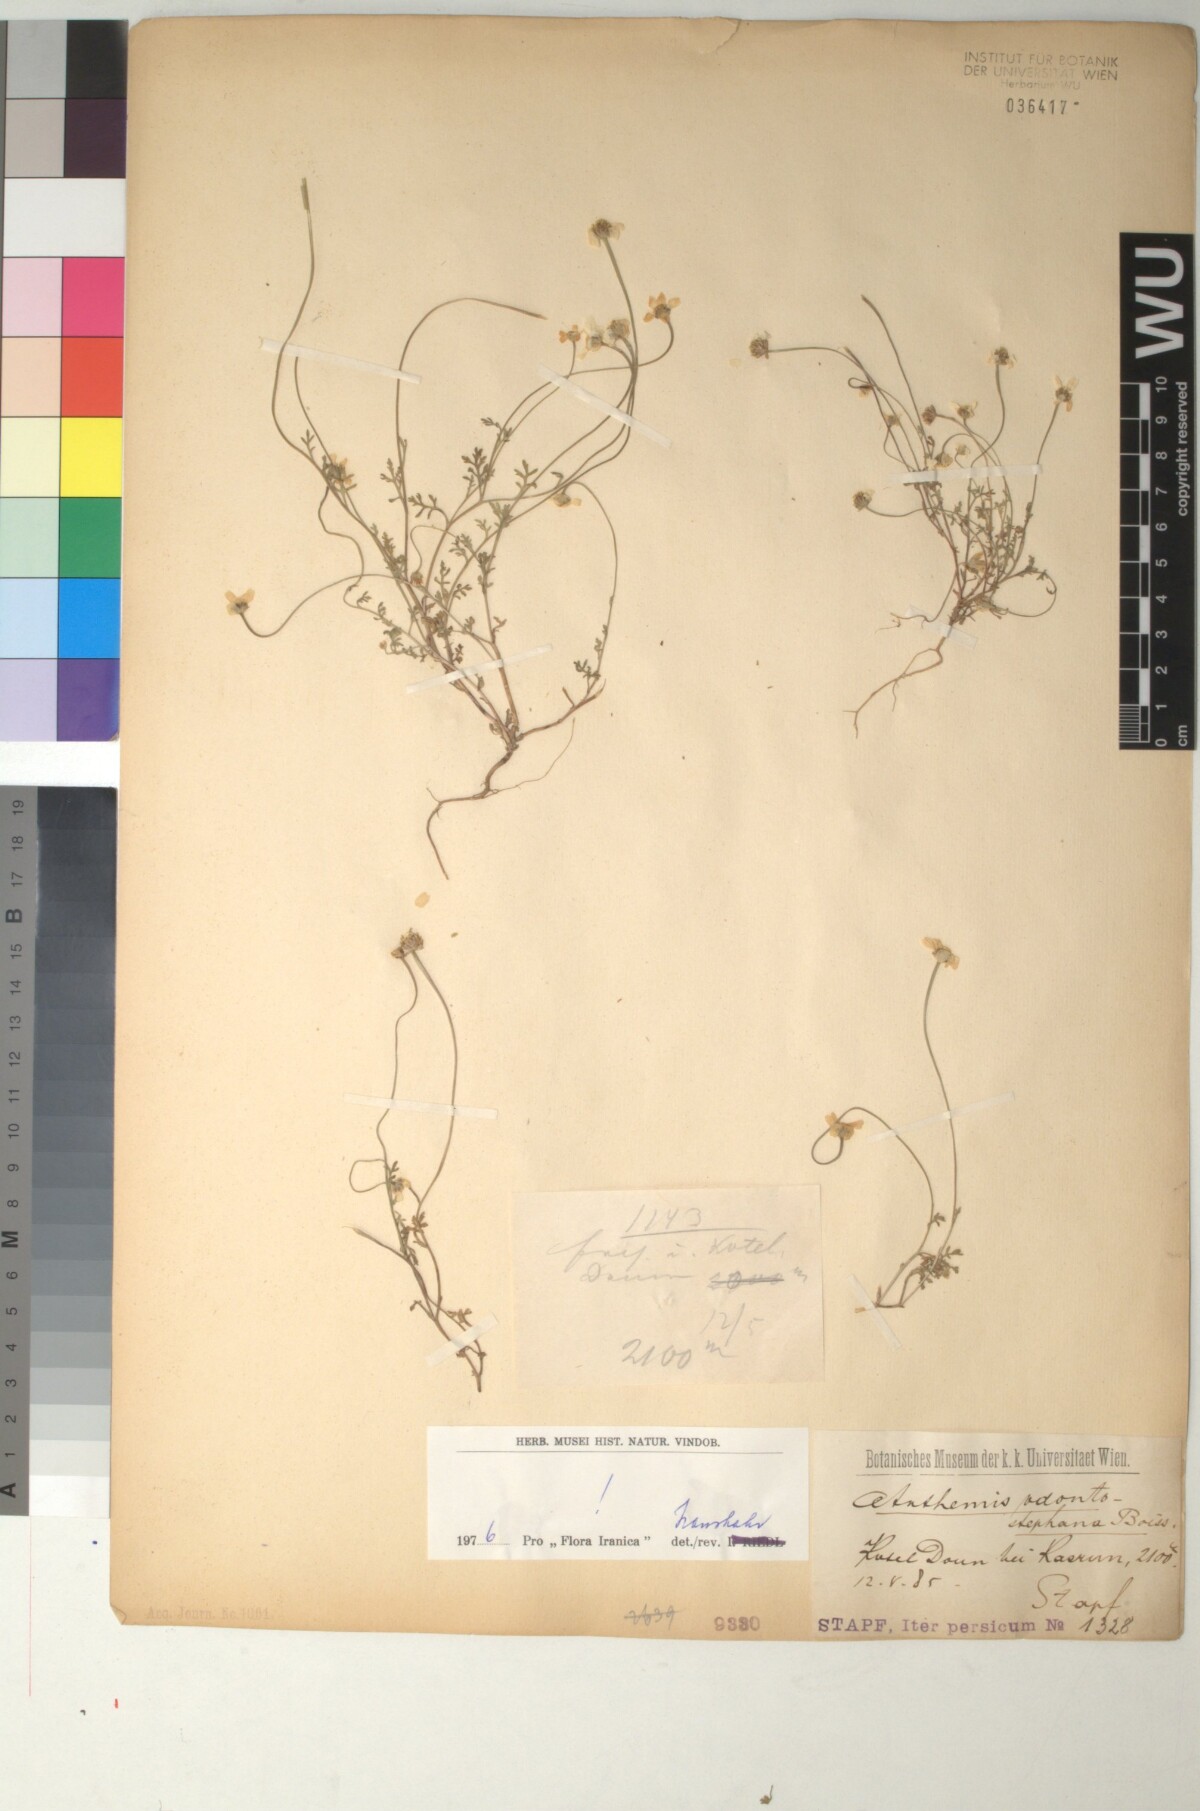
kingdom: Plantae
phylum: Tracheophyta
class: Magnoliopsida
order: Asterales
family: Asteraceae
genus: Anthemis
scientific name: Anthemis odontostephana
